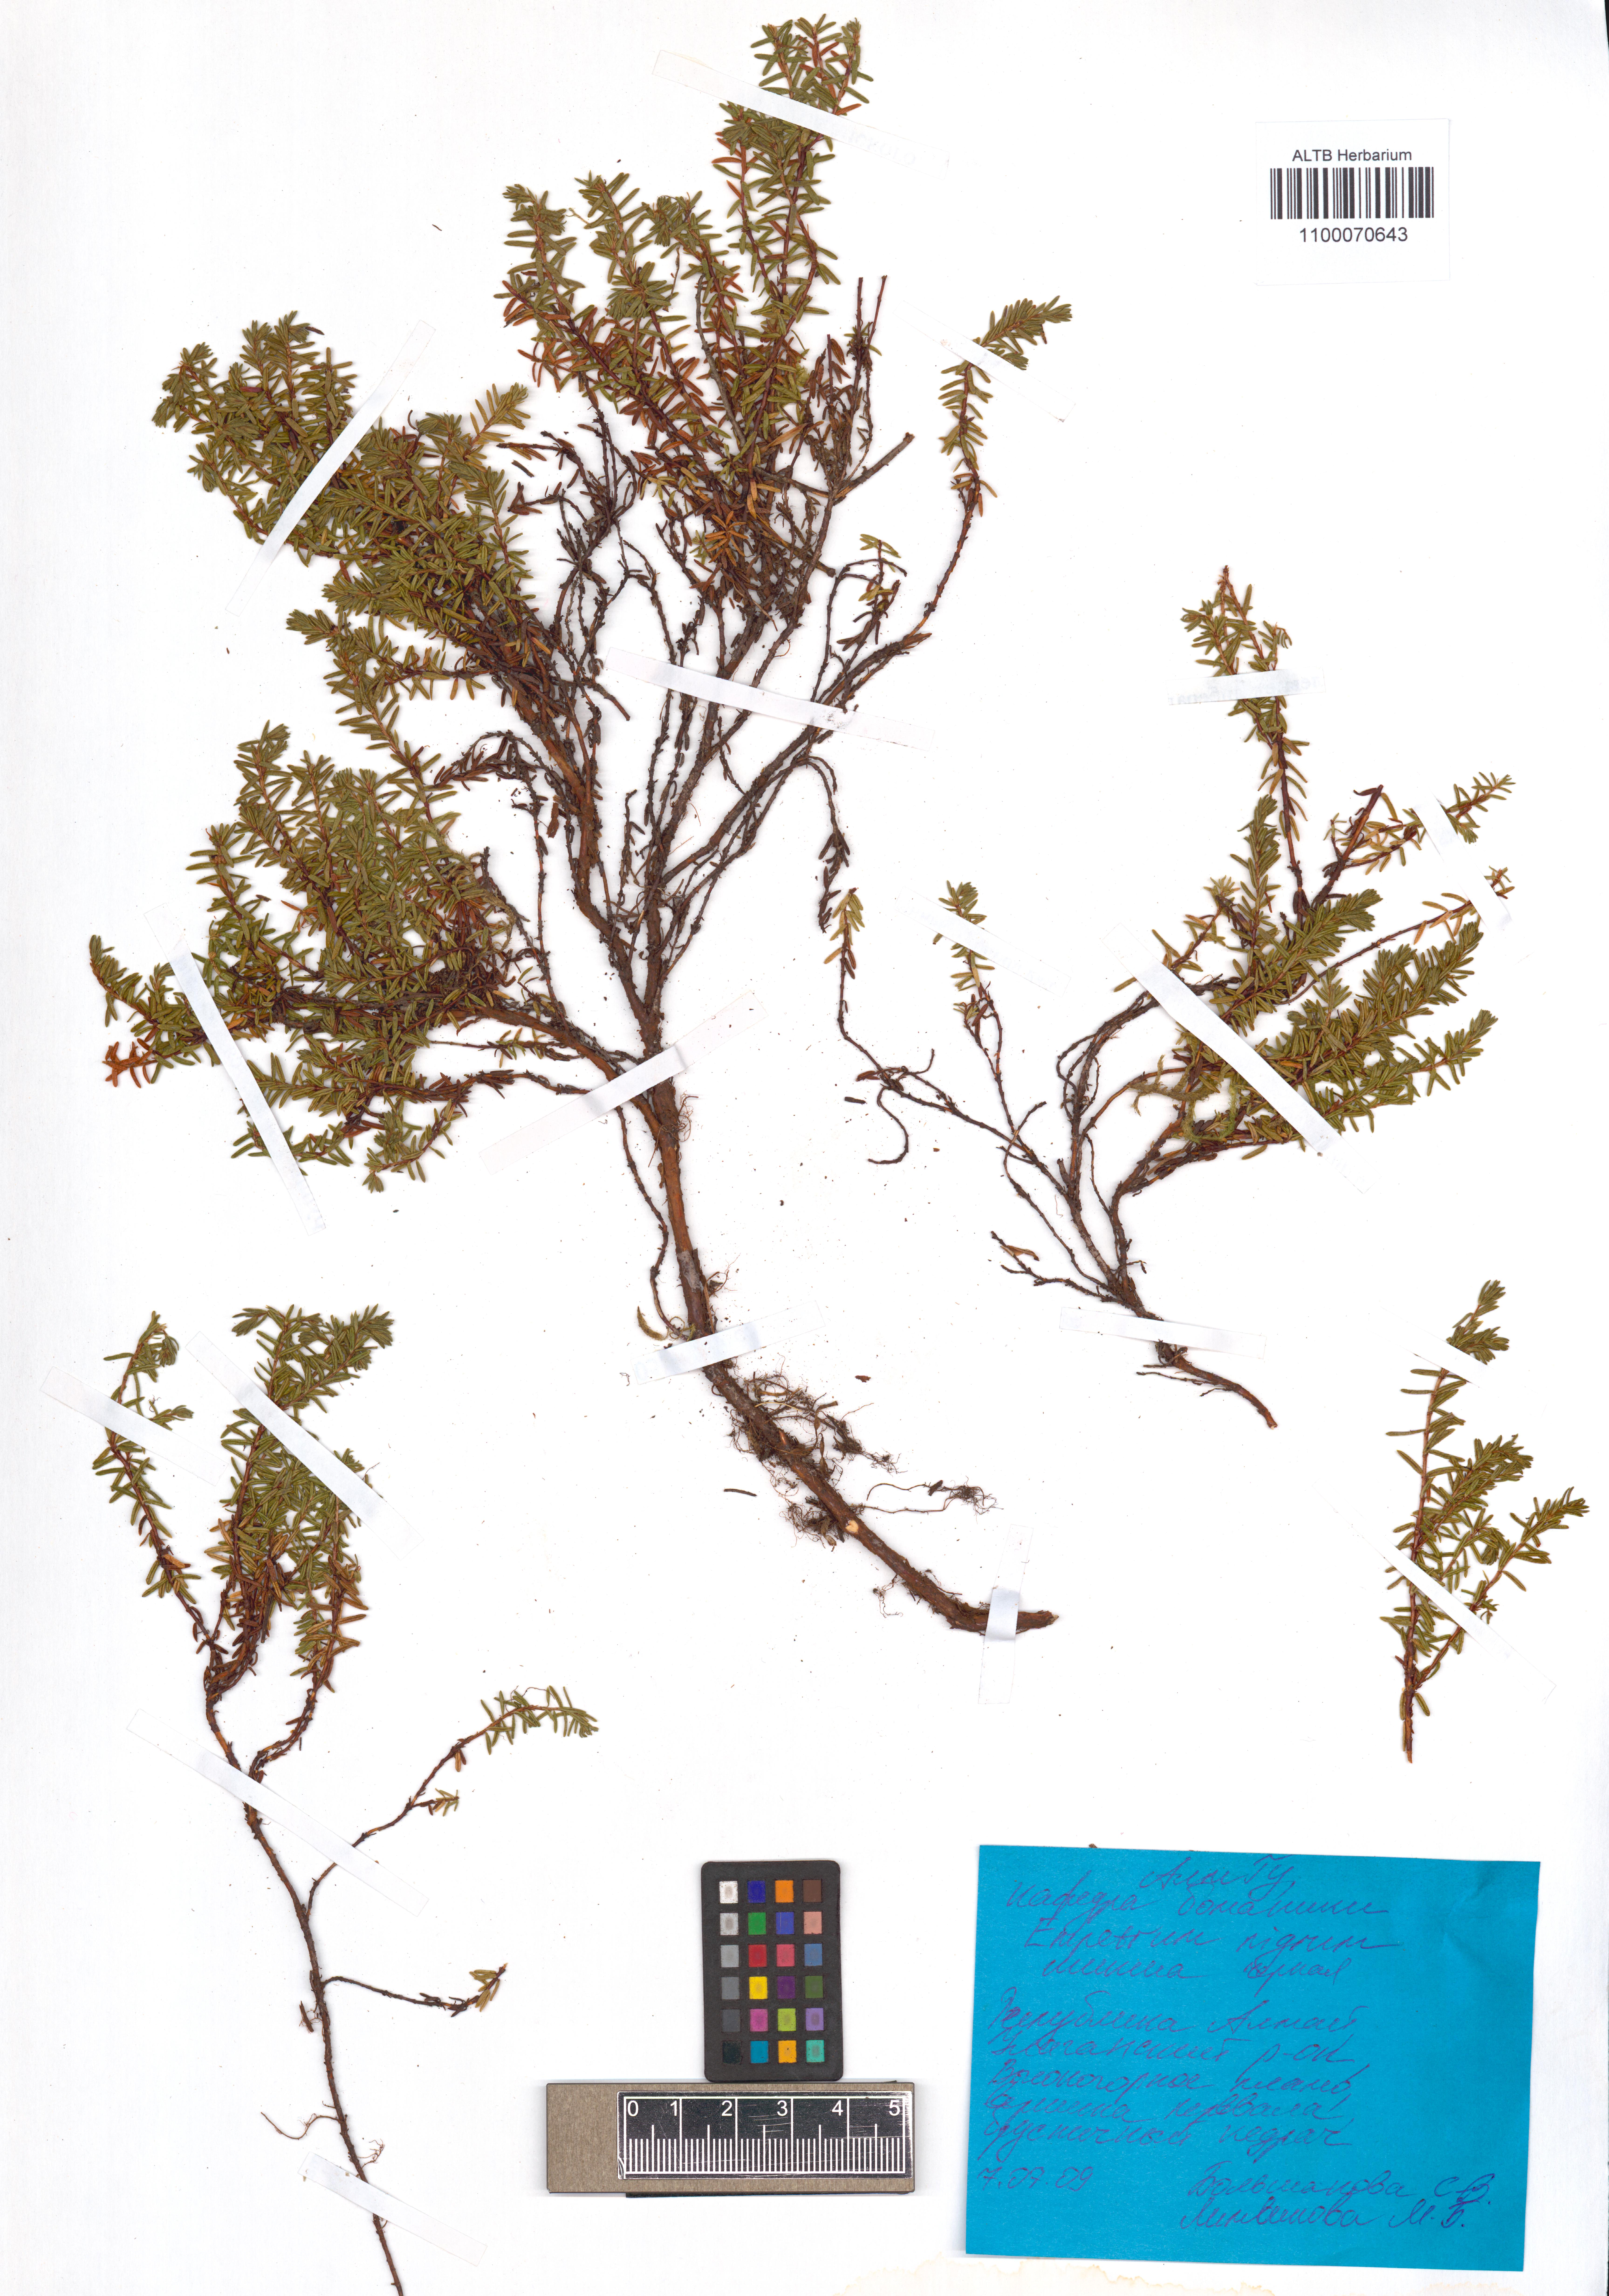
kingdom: Plantae
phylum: Tracheophyta
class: Magnoliopsida
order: Ericales
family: Ericaceae
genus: Empetrum
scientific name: Empetrum nigrum
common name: Black crowberry
